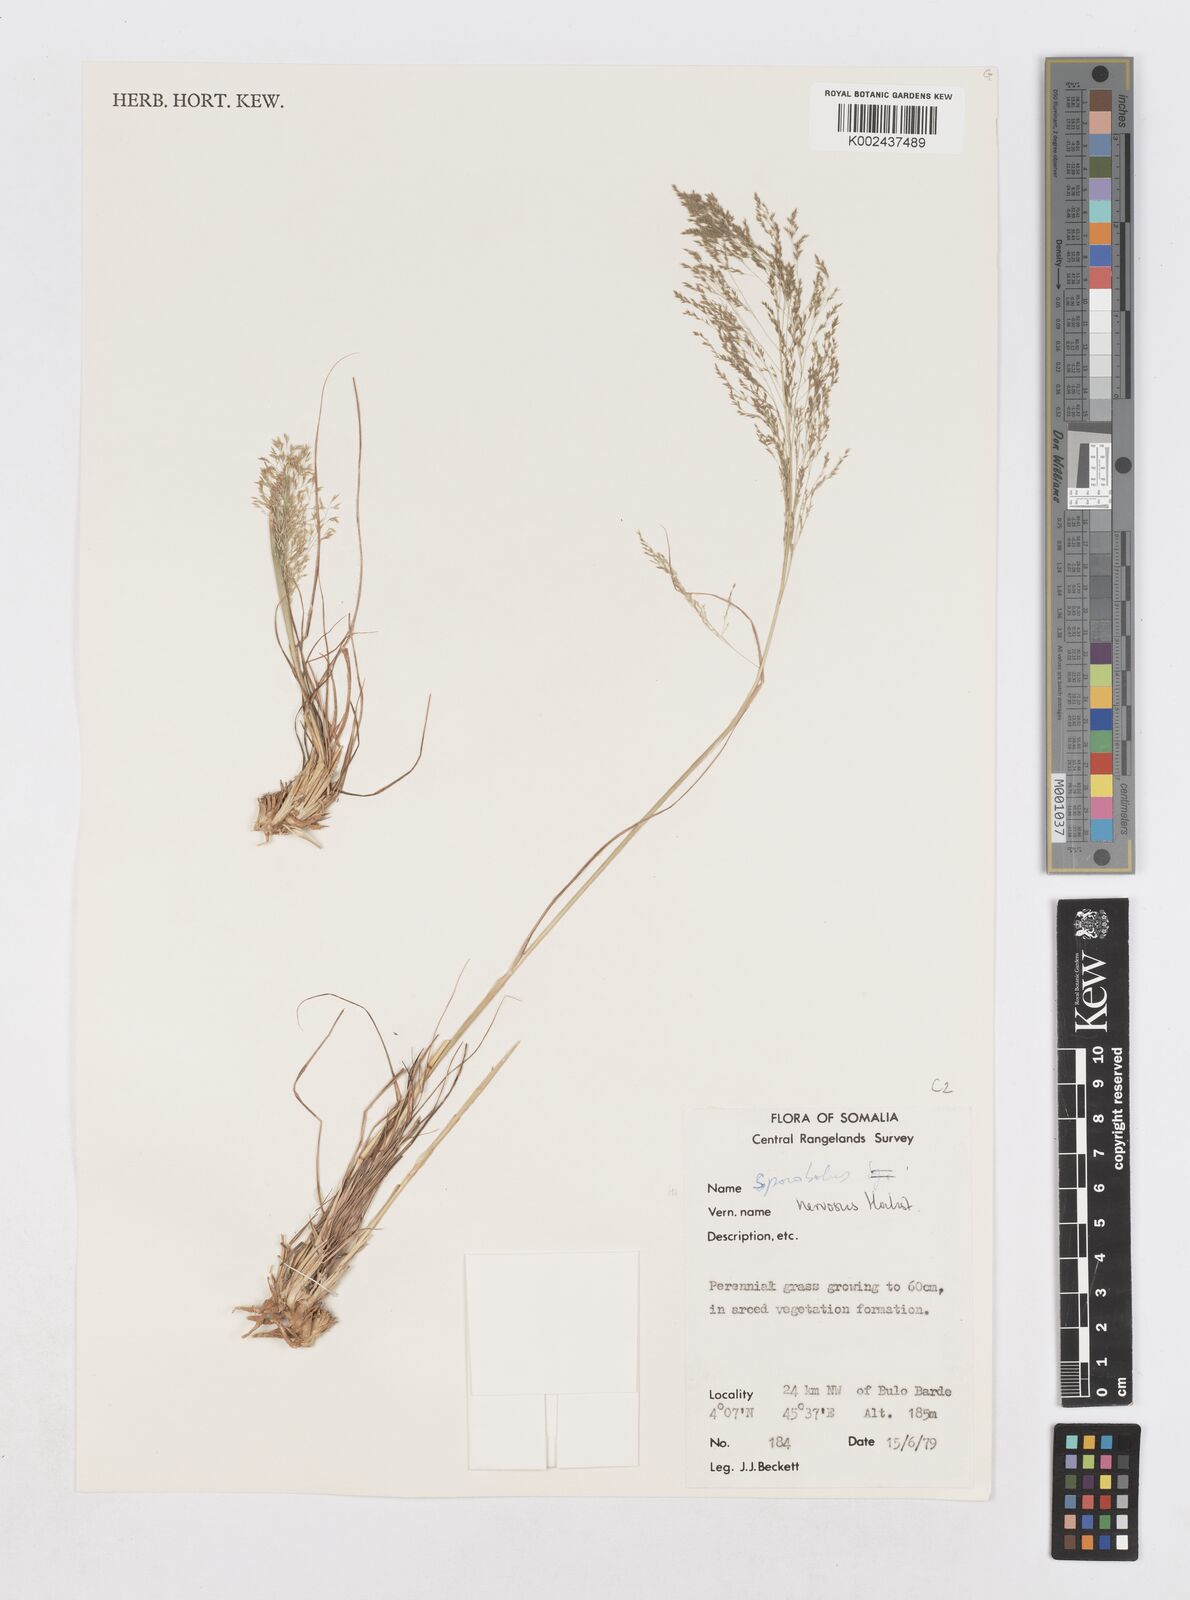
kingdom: Plantae
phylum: Tracheophyta
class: Liliopsida
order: Poales
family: Poaceae
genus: Sporobolus
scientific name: Sporobolus nervosus
